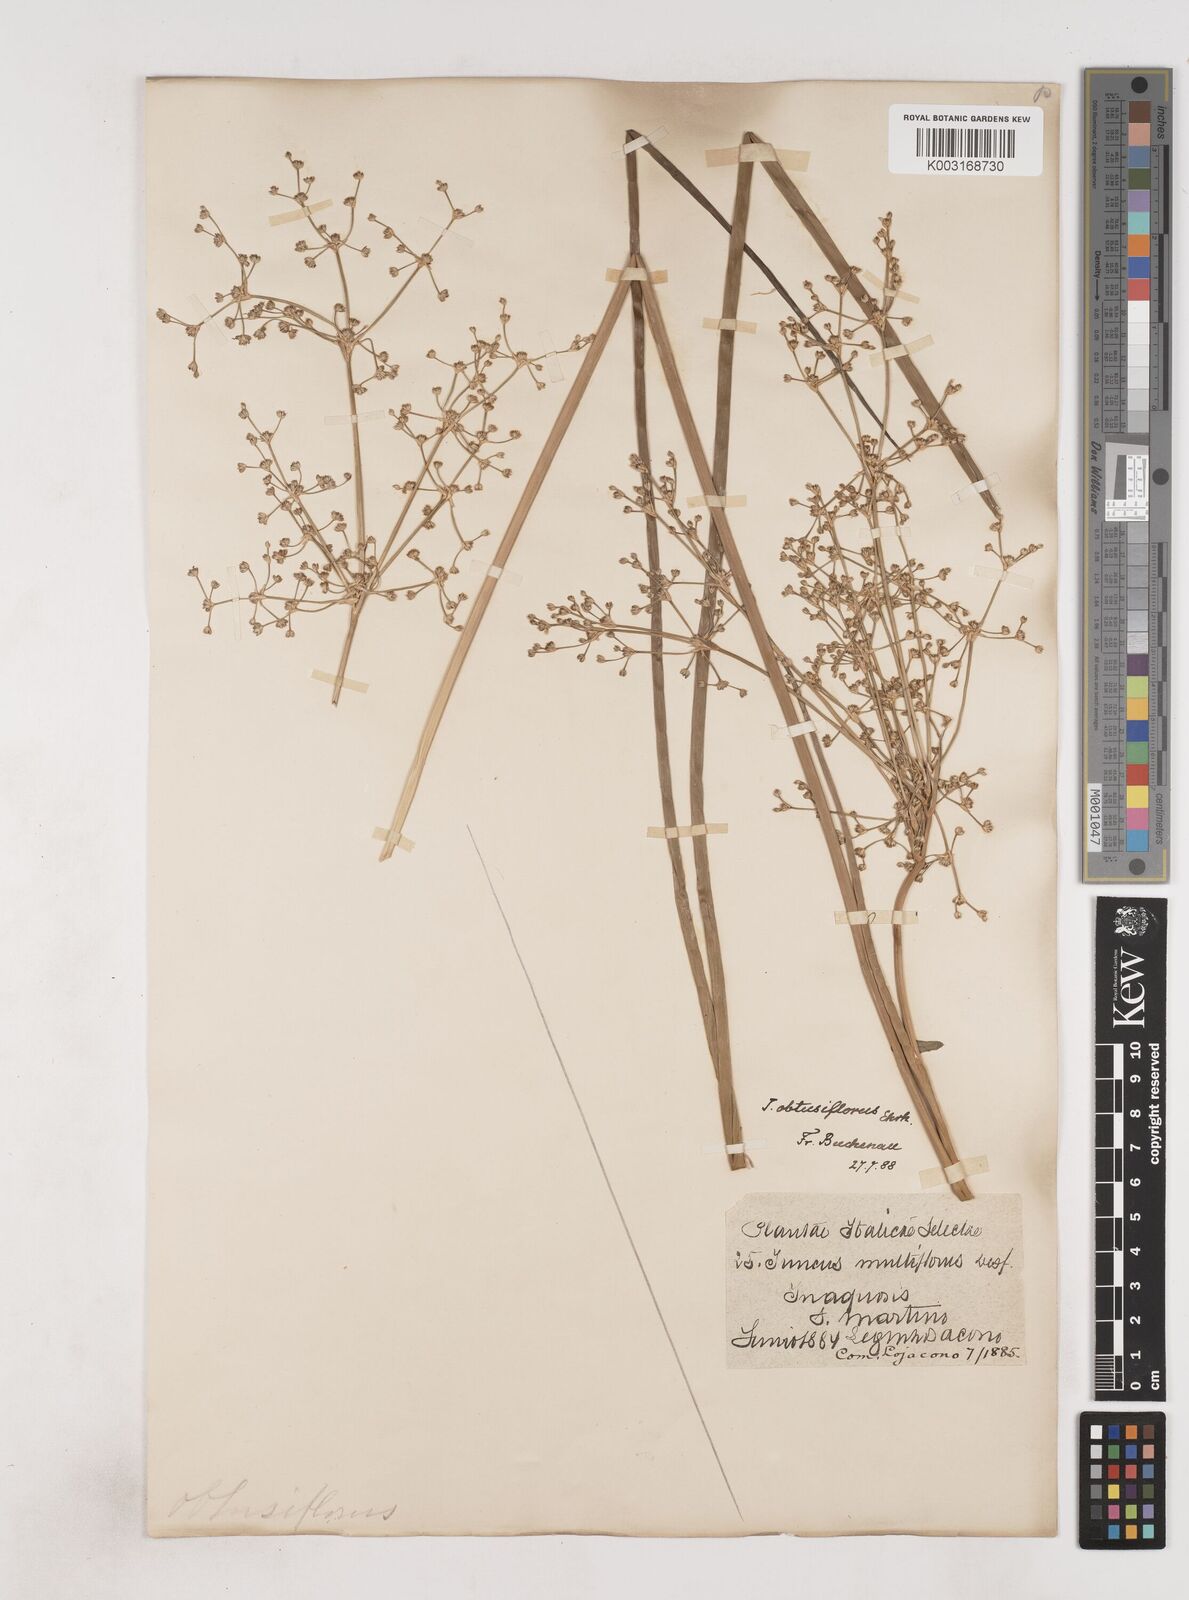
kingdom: Plantae
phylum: Tracheophyta
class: Liliopsida
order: Poales
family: Juncaceae
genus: Juncus
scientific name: Juncus subnodulosus
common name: Blunt-flowered rush
